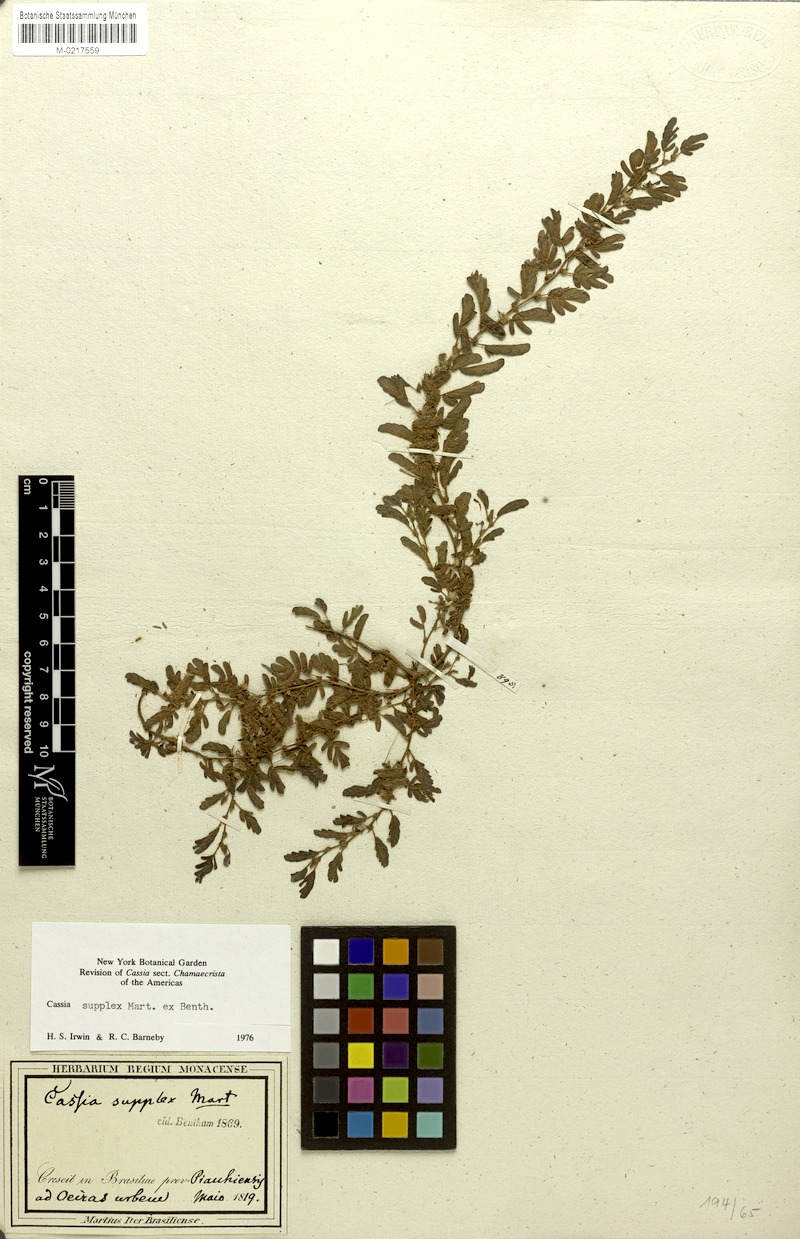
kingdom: Plantae
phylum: Tracheophyta
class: Magnoliopsida
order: Fabales
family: Fabaceae
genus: Chamaecrista
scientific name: Chamaecrista supplex
